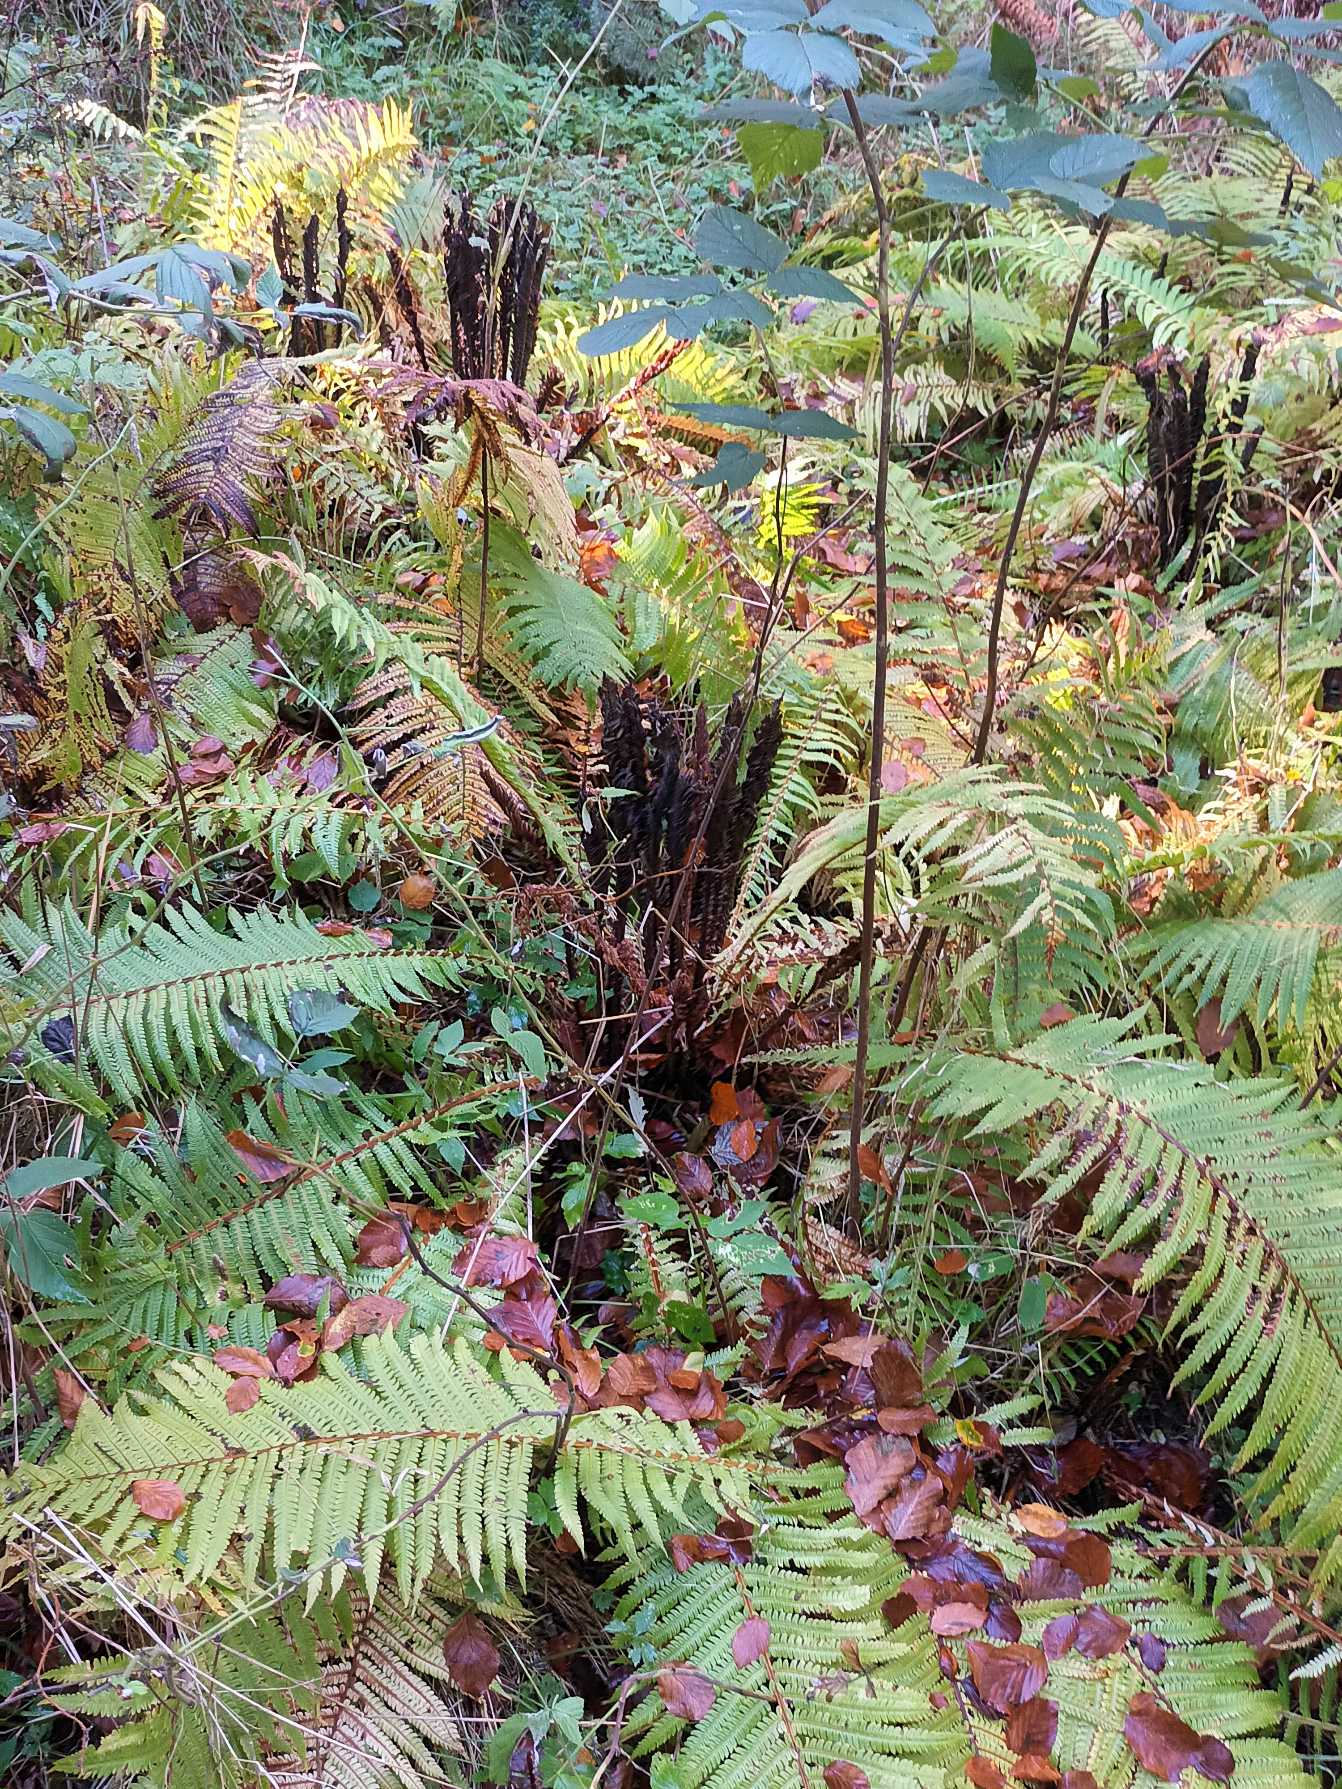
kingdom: Plantae
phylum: Tracheophyta
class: Polypodiopsida
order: Polypodiales
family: Onocleaceae
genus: Matteuccia
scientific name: Matteuccia struthiopteris
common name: Strudsvinge
